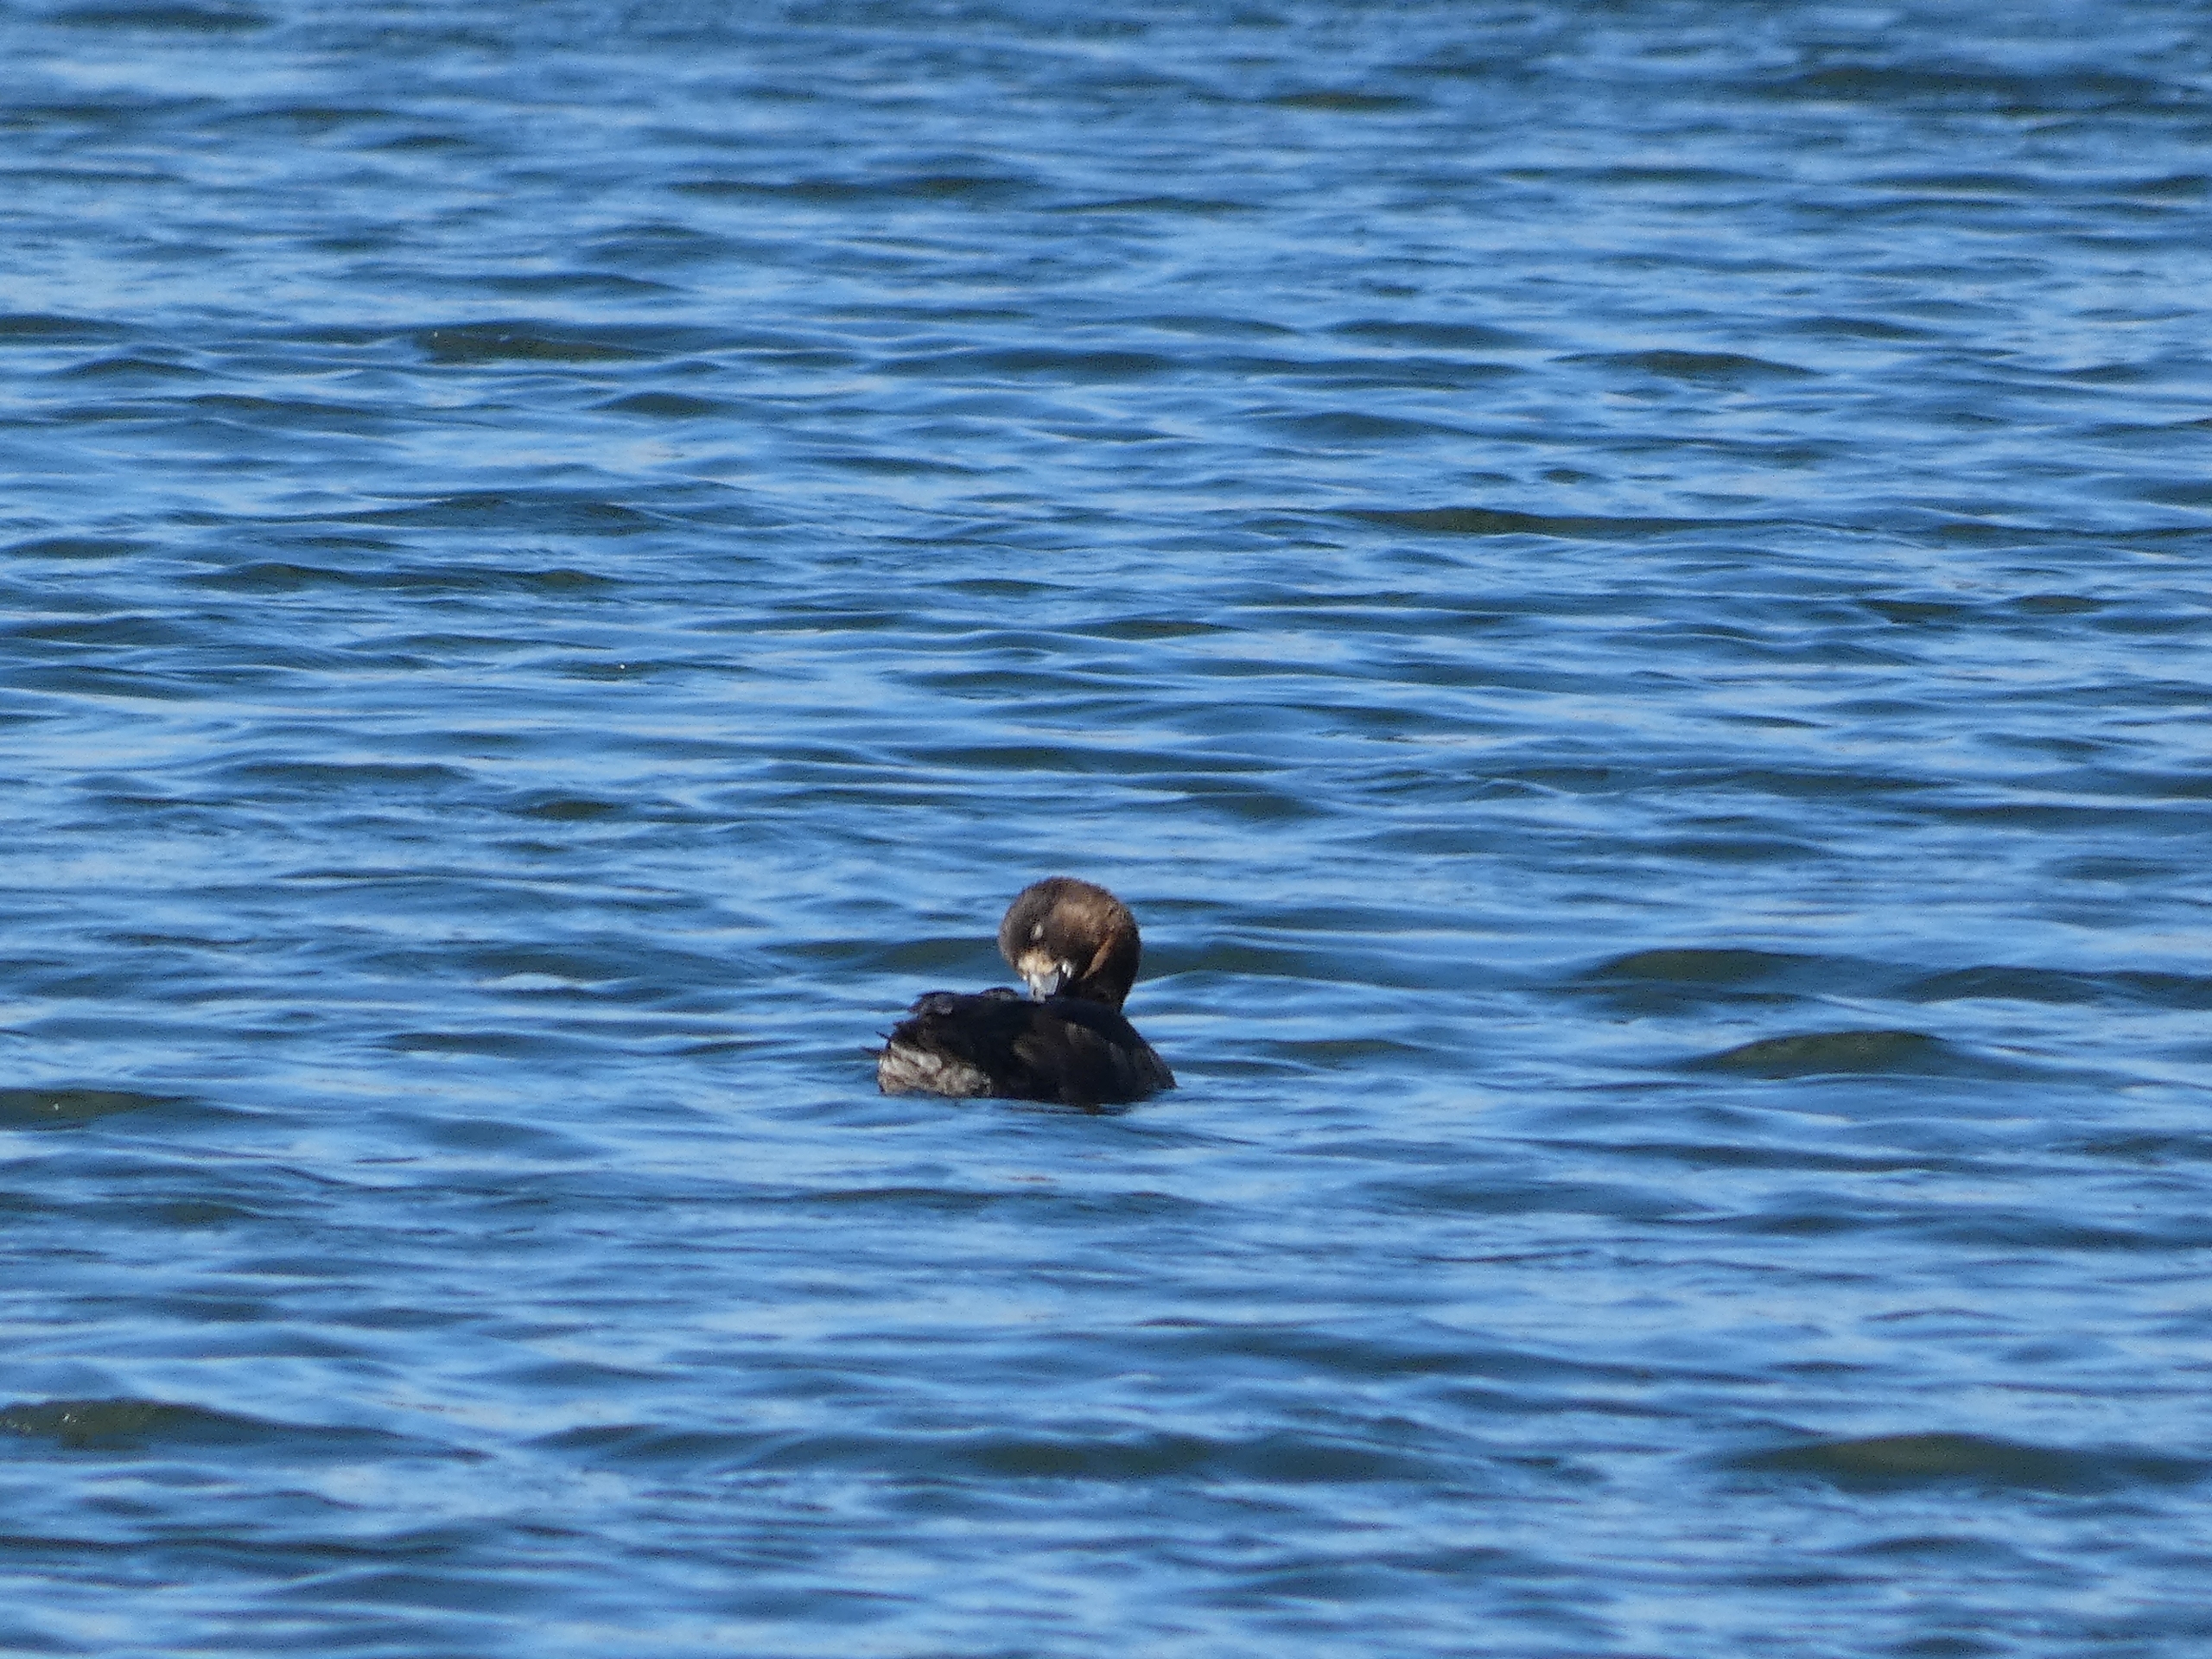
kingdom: Animalia
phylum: Chordata
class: Aves
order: Anseriformes
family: Anatidae
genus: Aythya
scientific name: Aythya fuligula
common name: Troldand
